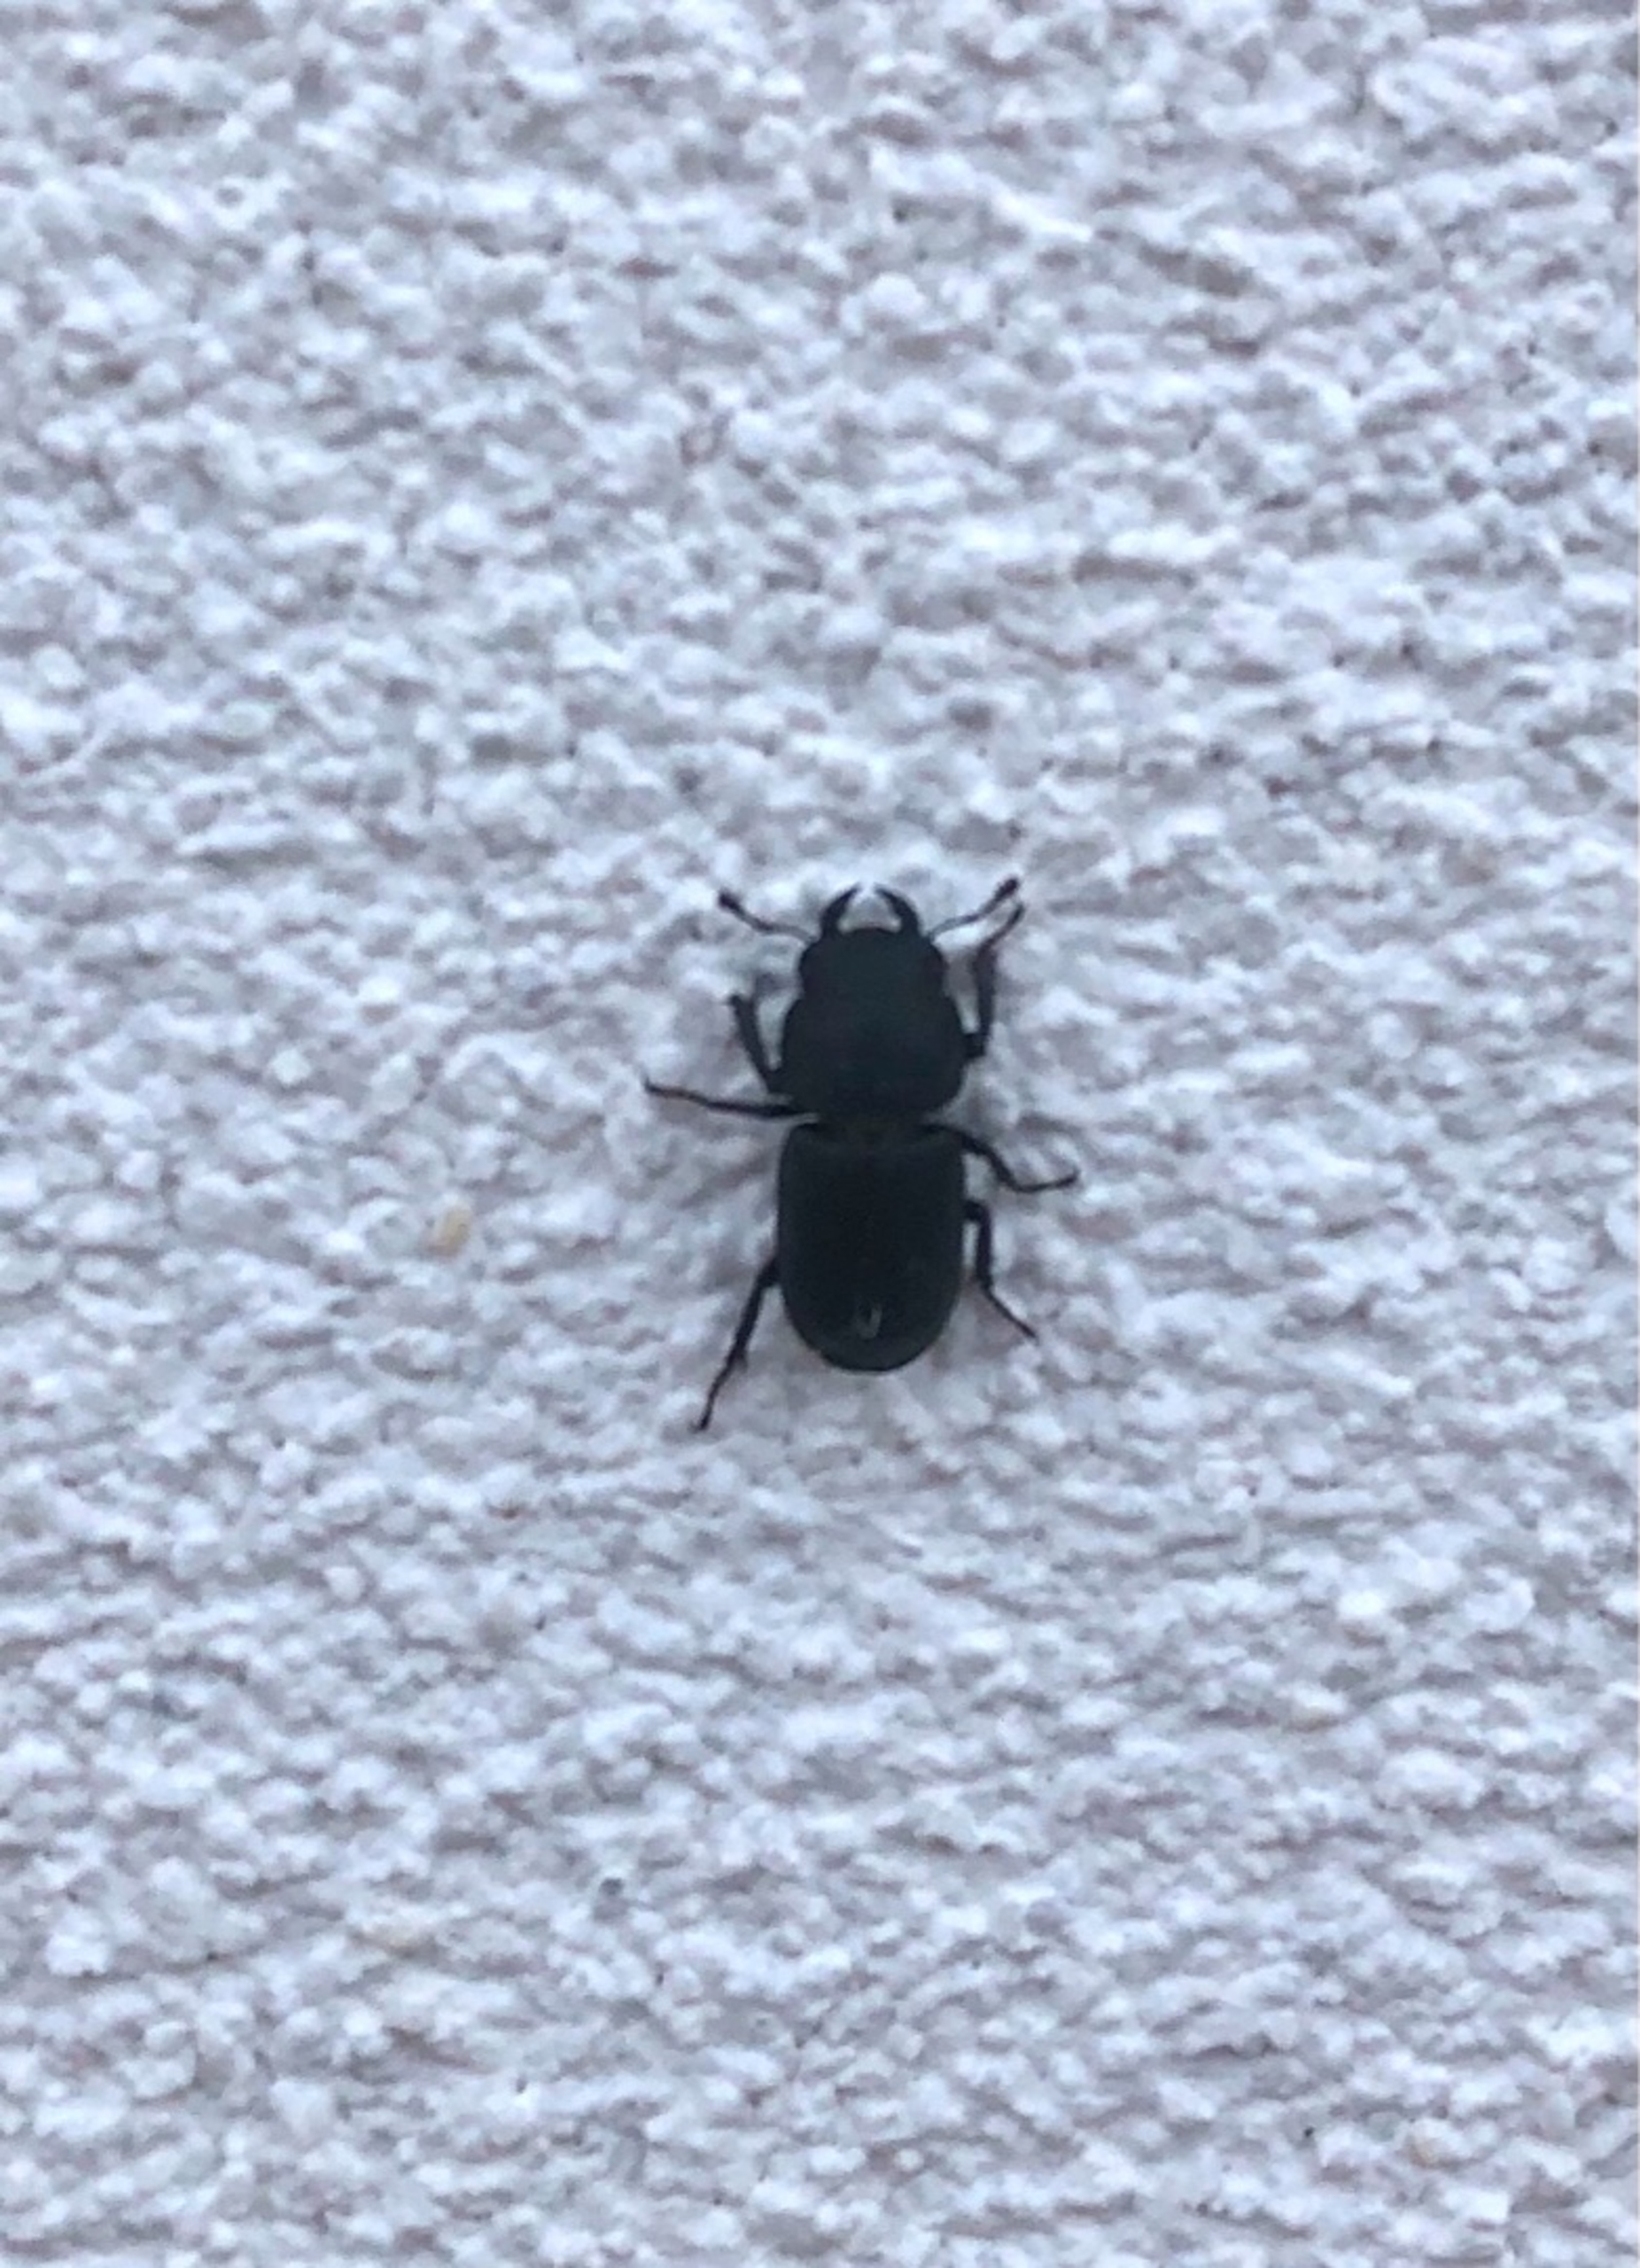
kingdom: Animalia
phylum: Arthropoda
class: Insecta
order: Coleoptera
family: Lucanidae
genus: Dorcus
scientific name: Dorcus parallelipipedus
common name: Bøghjort
